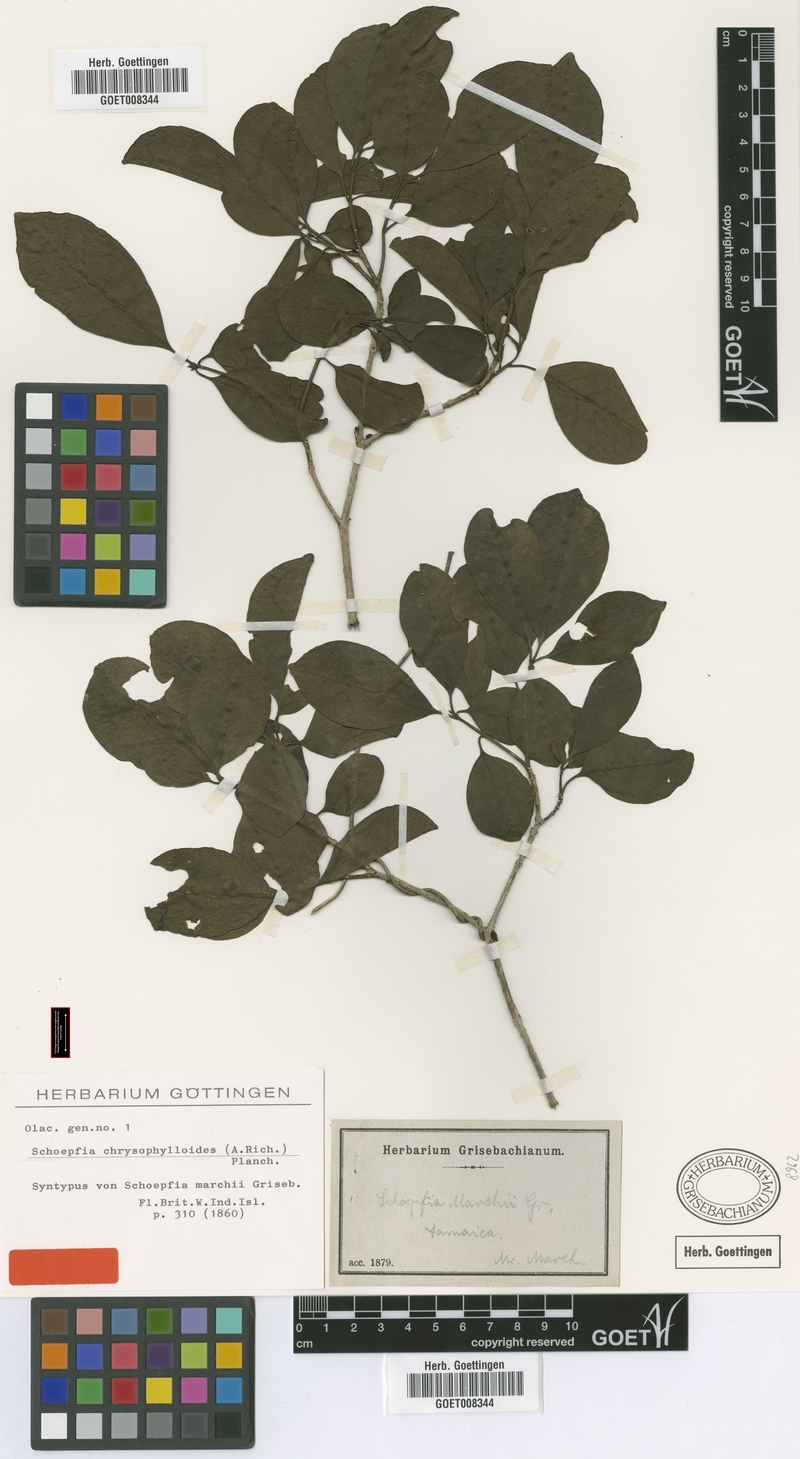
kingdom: Plantae
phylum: Tracheophyta
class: Magnoliopsida
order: Santalales
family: Schoepfiaceae
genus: Schoepfia
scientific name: Schoepfia schreberi
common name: Gulf graytwig
